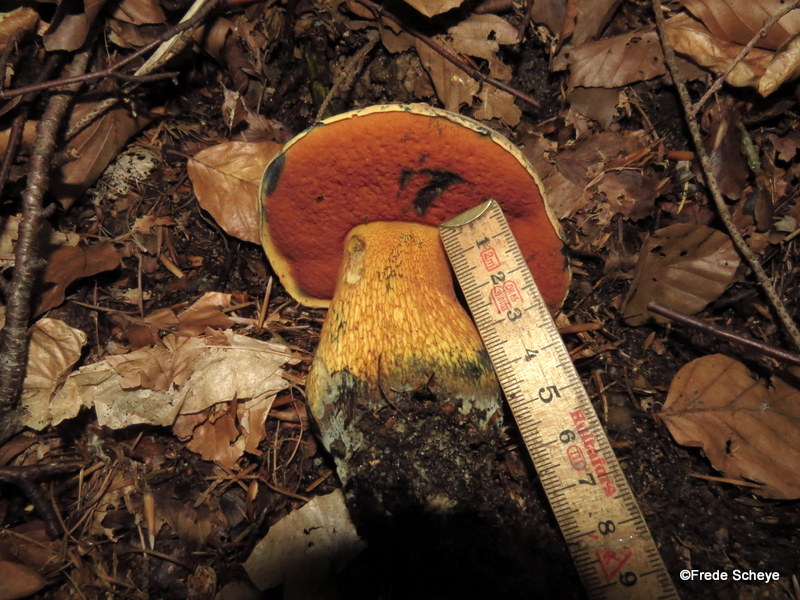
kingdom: Fungi
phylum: Basidiomycota
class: Agaricomycetes
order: Boletales
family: Boletaceae
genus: Suillellus
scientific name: Suillellus luridus
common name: netstokket indigorørhat
